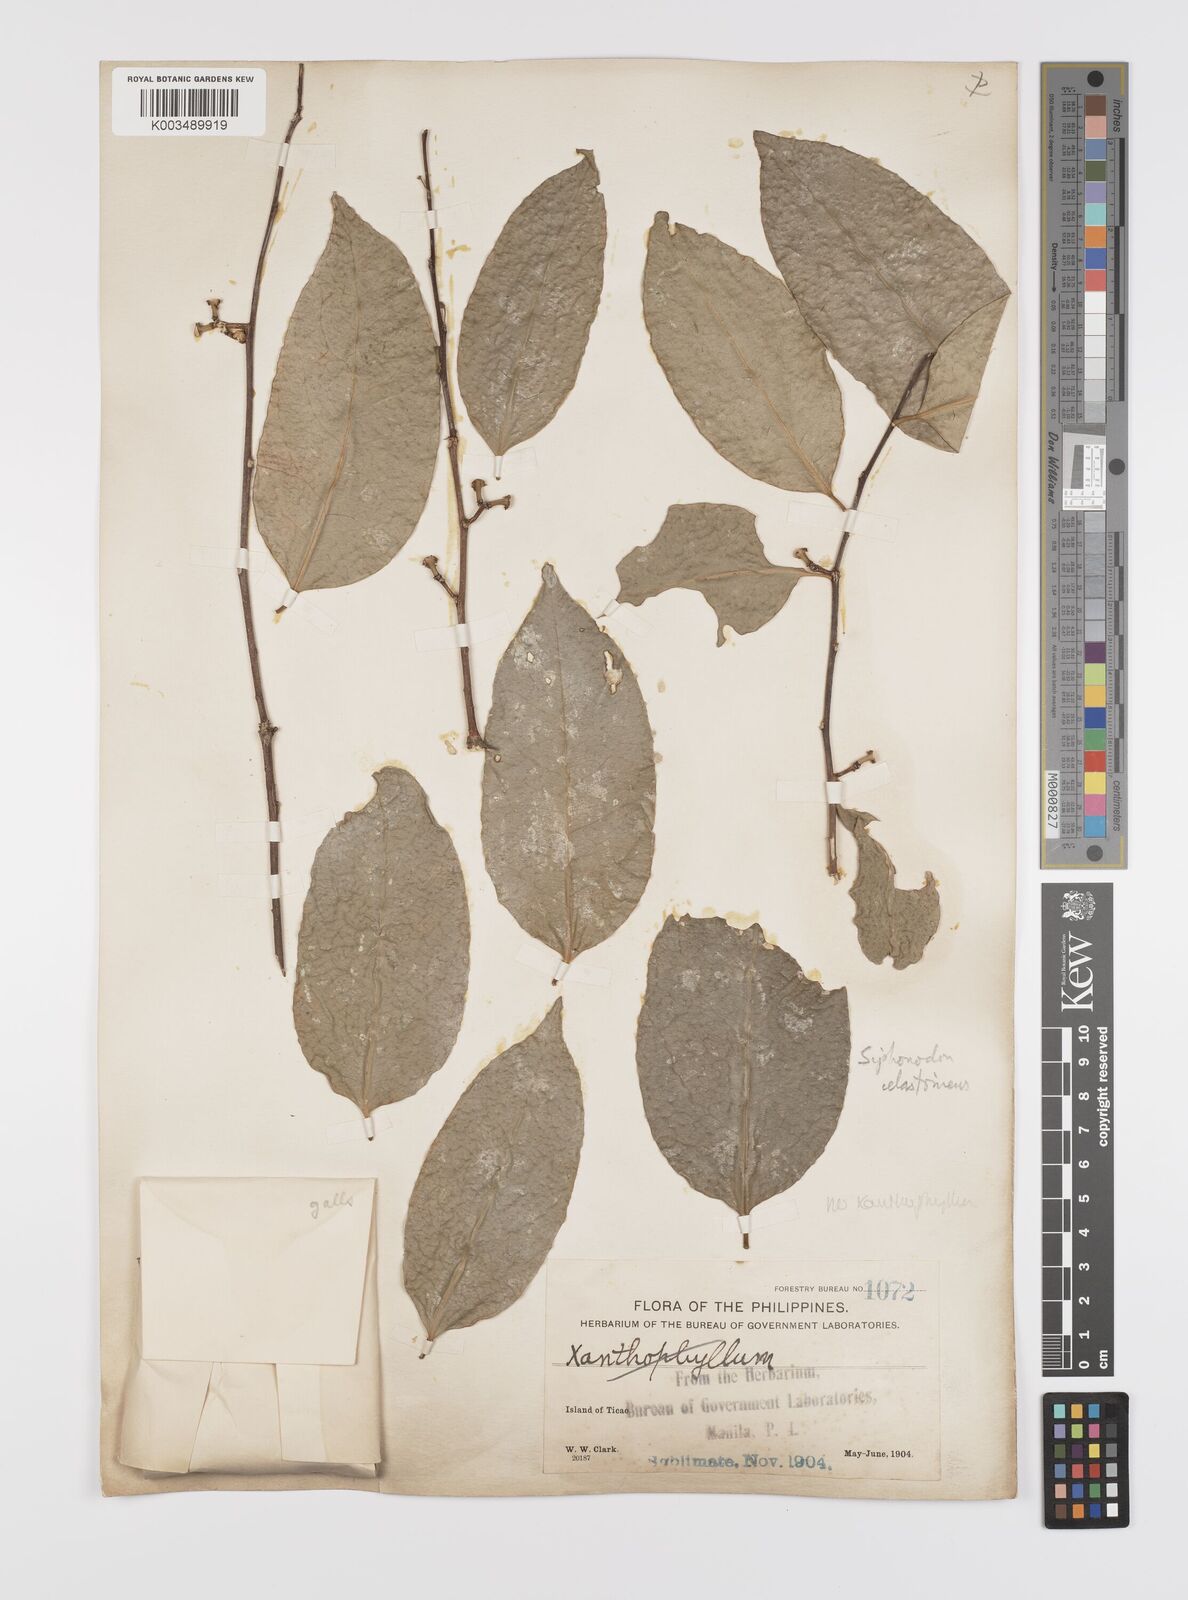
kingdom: Plantae
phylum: Tracheophyta
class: Magnoliopsida
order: Celastrales
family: Celastraceae
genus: Siphonodon
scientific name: Siphonodon celastrineus
